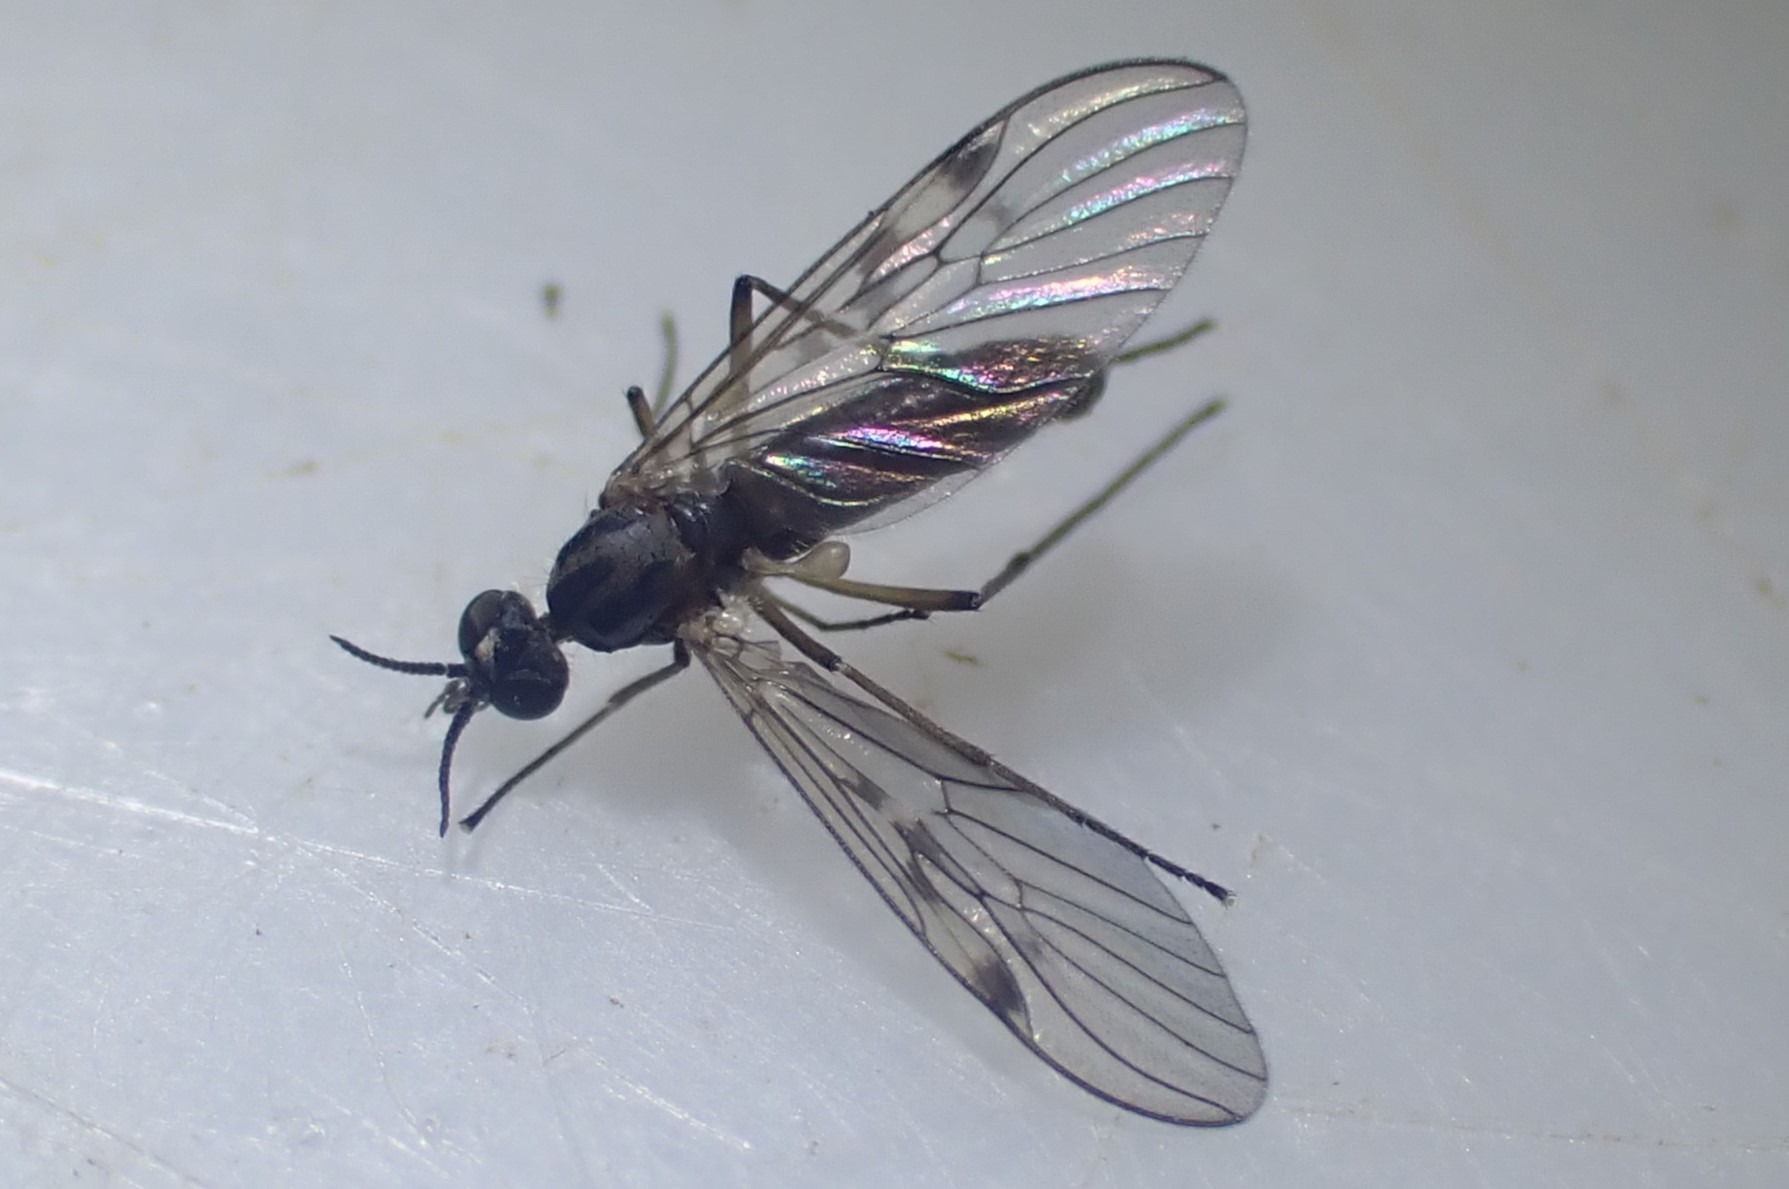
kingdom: Animalia
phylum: Arthropoda
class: Insecta
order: Diptera
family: Anisopodidae
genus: Sylvicola
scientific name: Sylvicola punctatus
